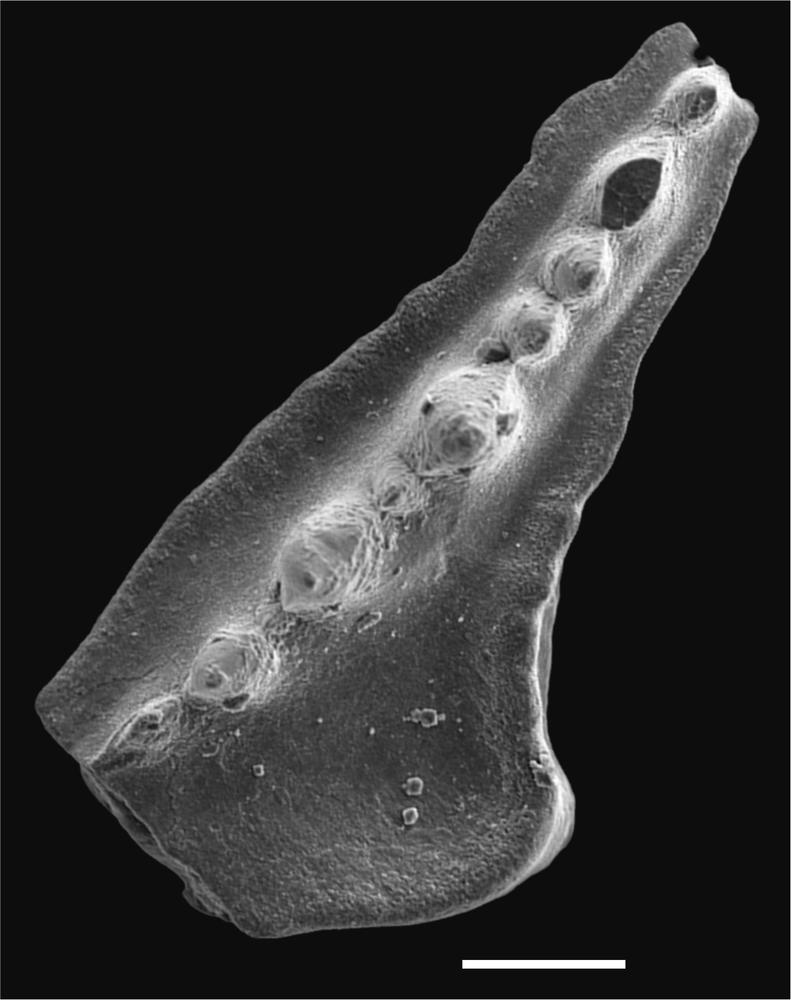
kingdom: Animalia
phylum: Chordata
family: Balognathidae
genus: Baltoniodus
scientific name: Baltoniodus
